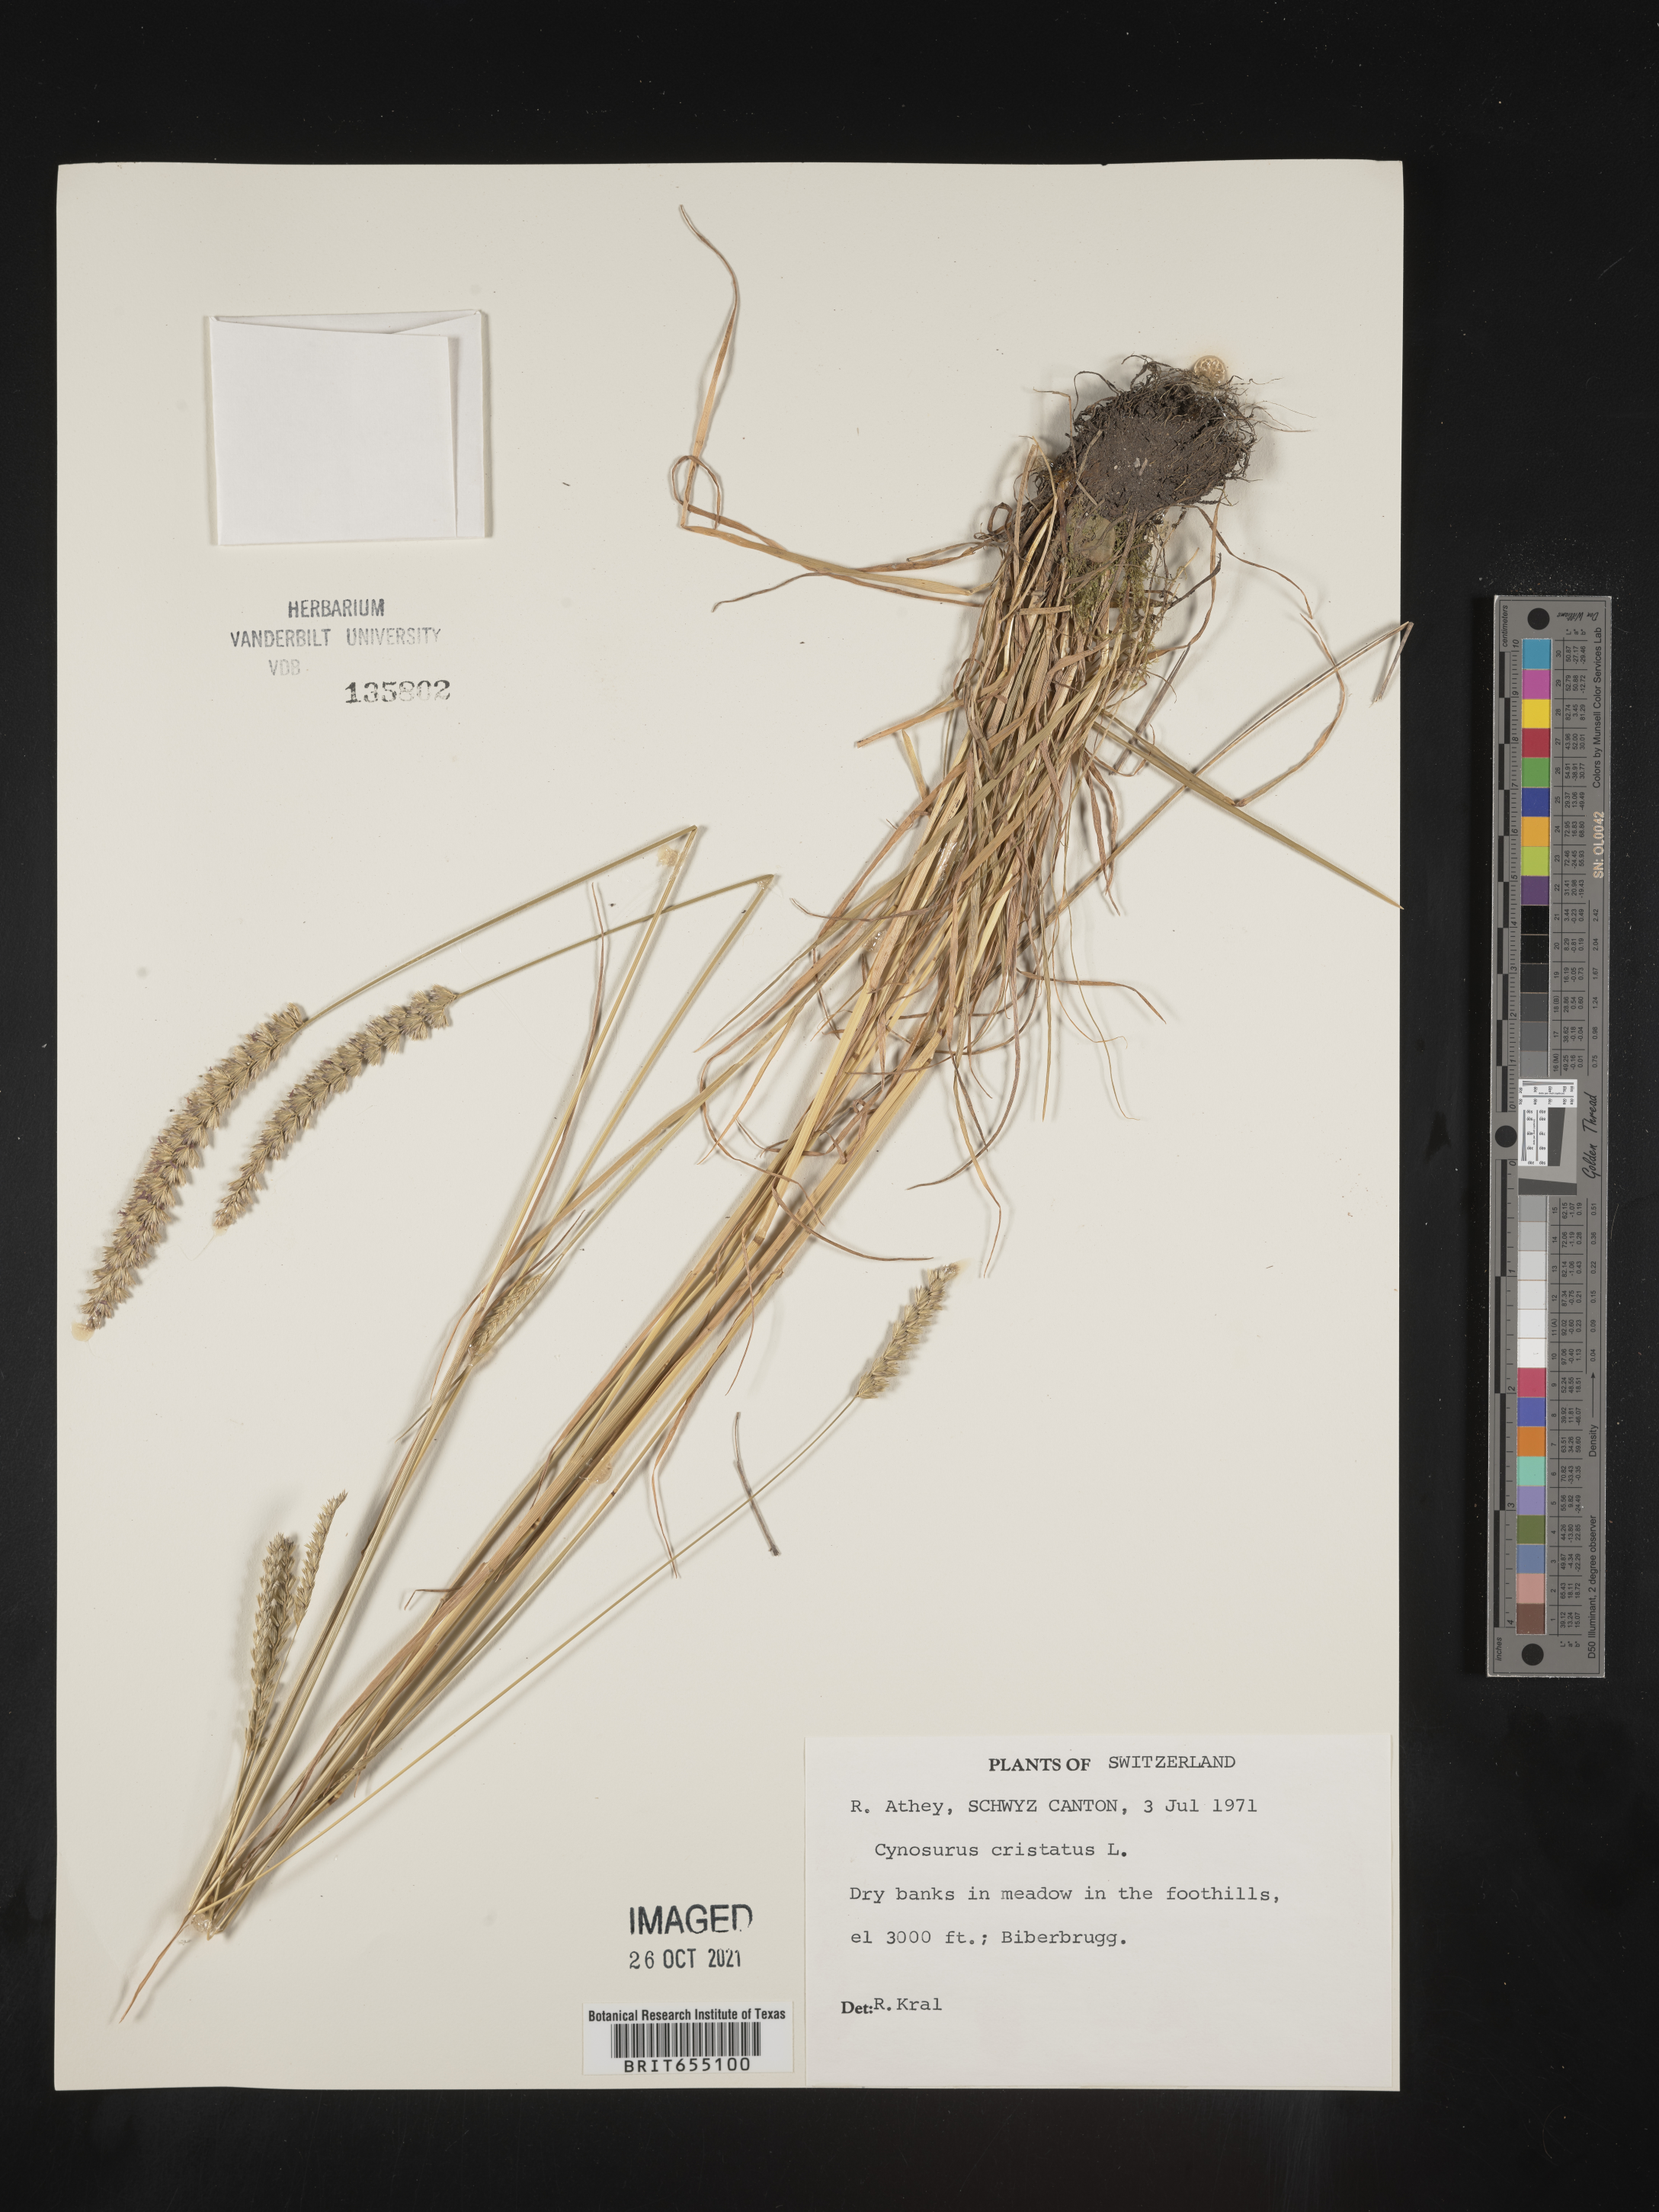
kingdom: Plantae
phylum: Tracheophyta
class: Liliopsida
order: Poales
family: Poaceae
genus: Cynosurus
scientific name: Cynosurus
